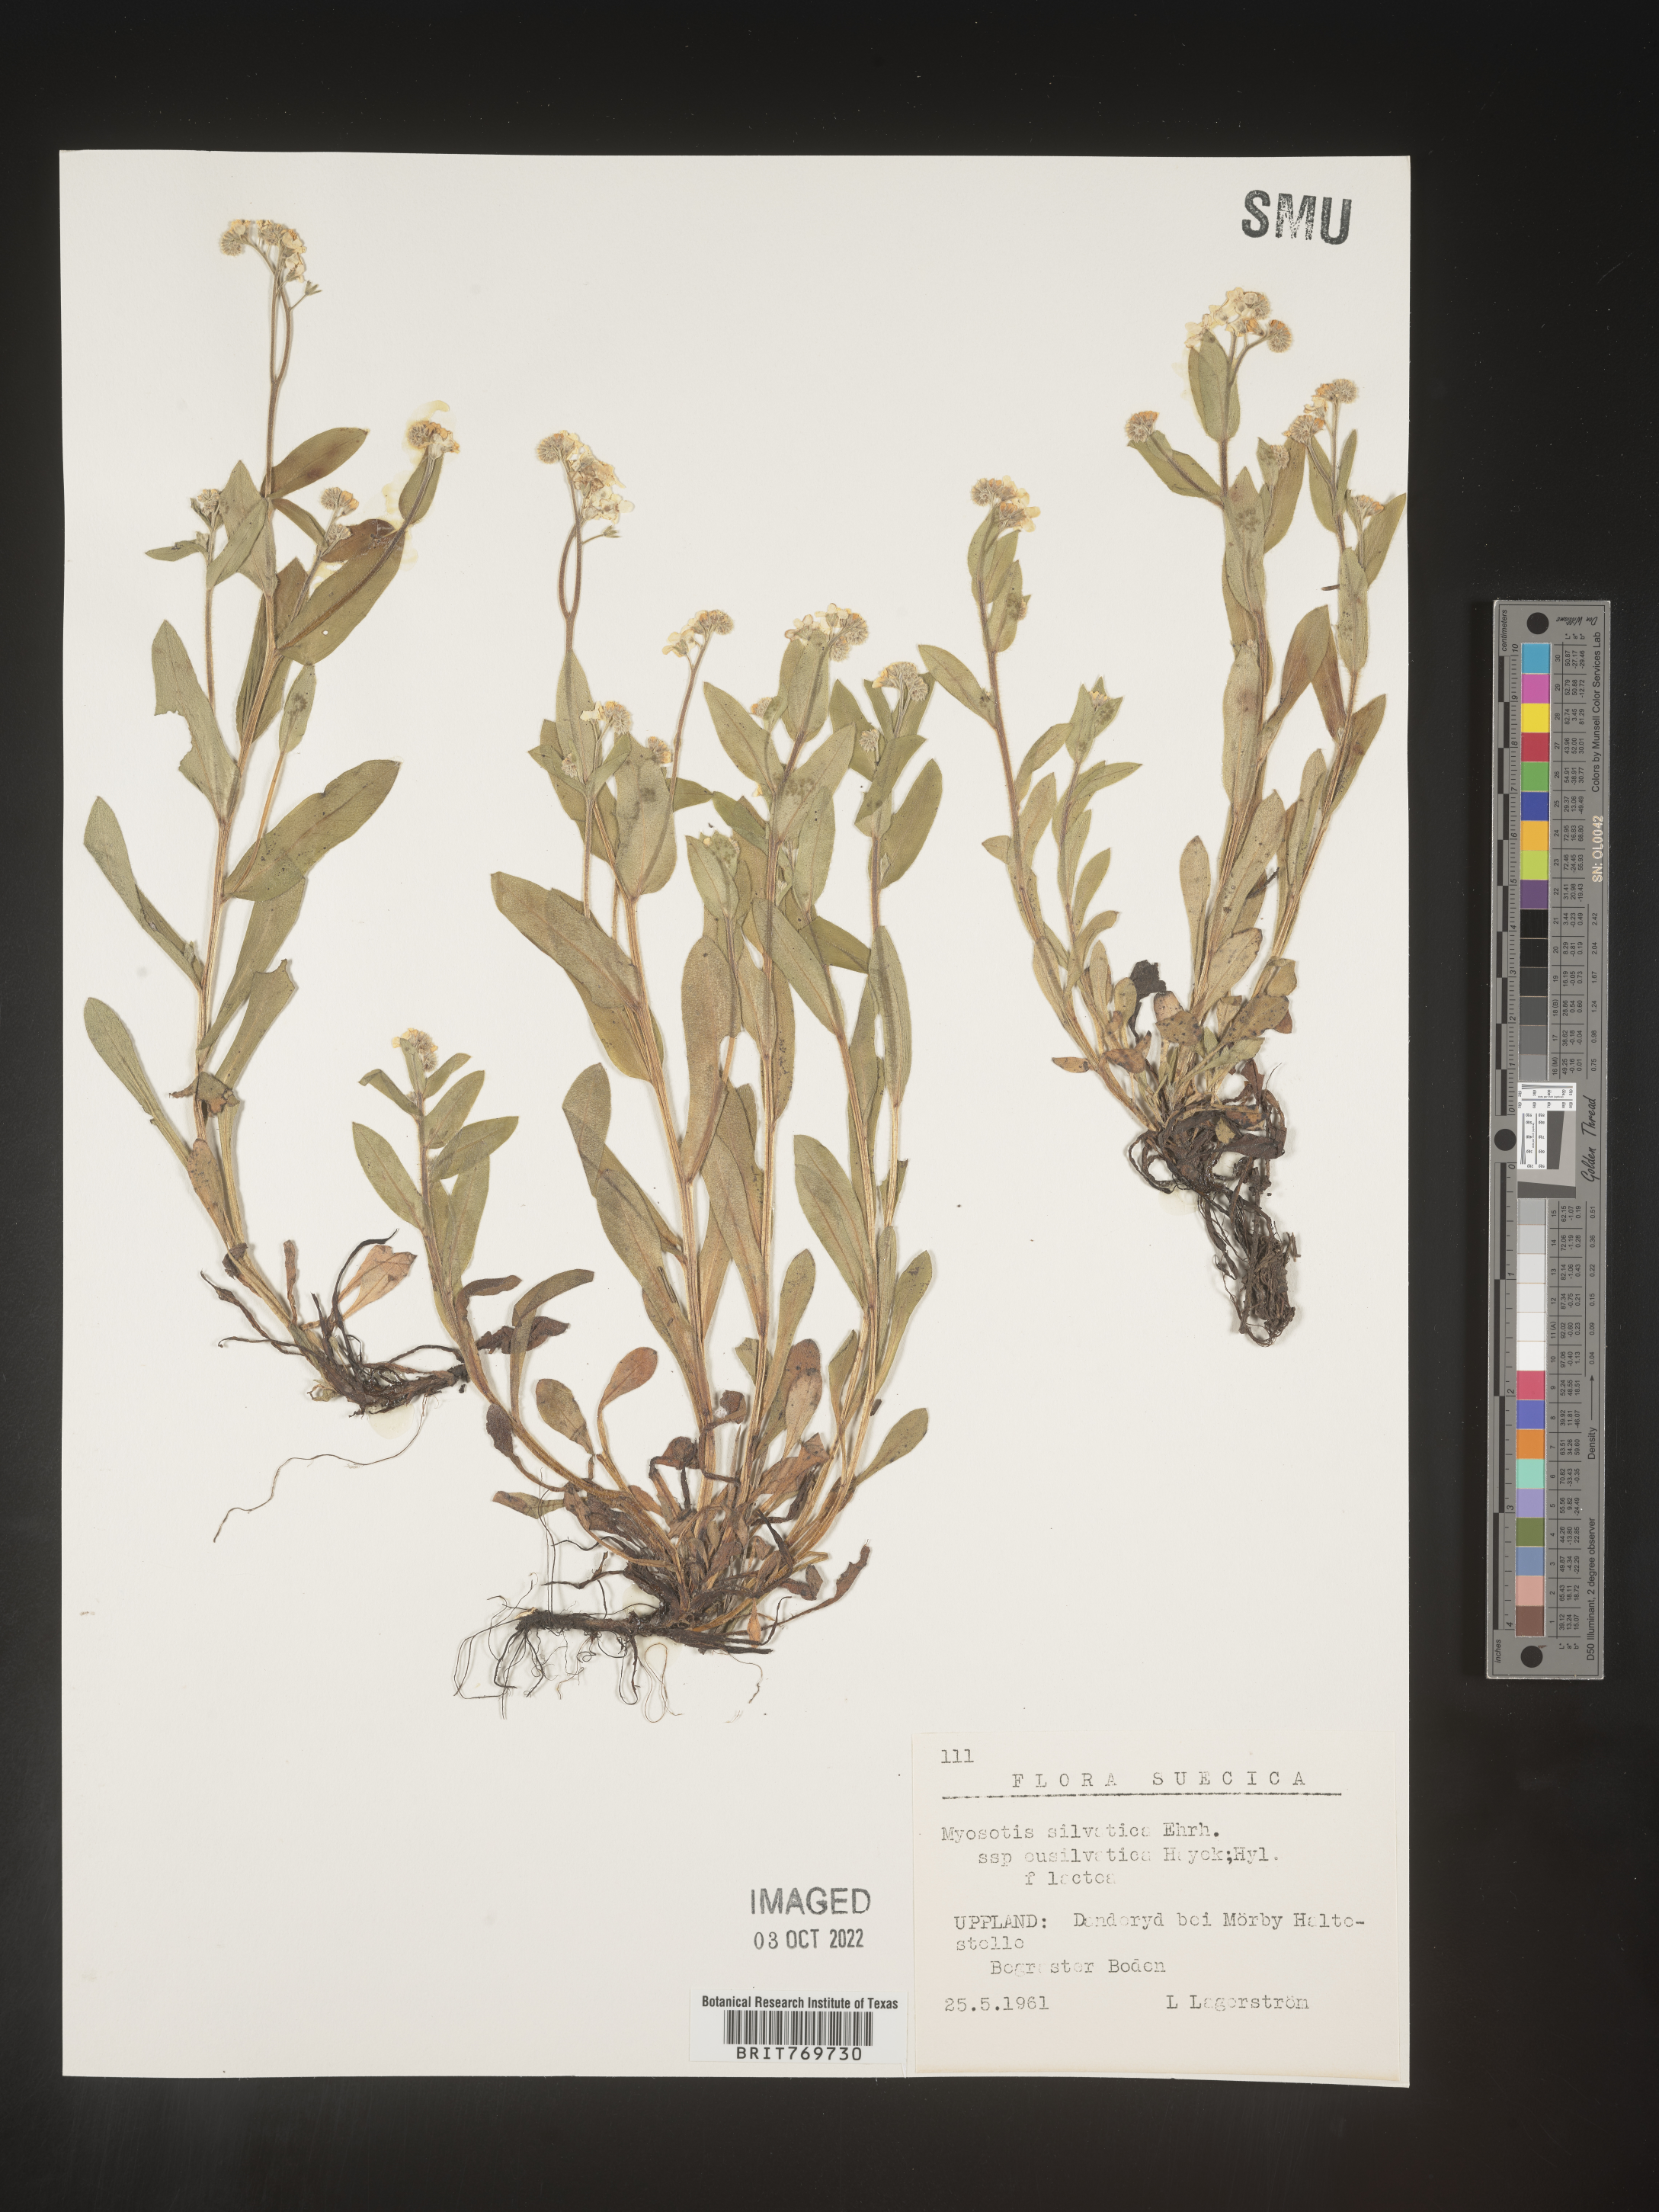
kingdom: Plantae
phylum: Tracheophyta
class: Magnoliopsida
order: Boraginales
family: Boraginaceae
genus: Myosotis
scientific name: Myosotis
